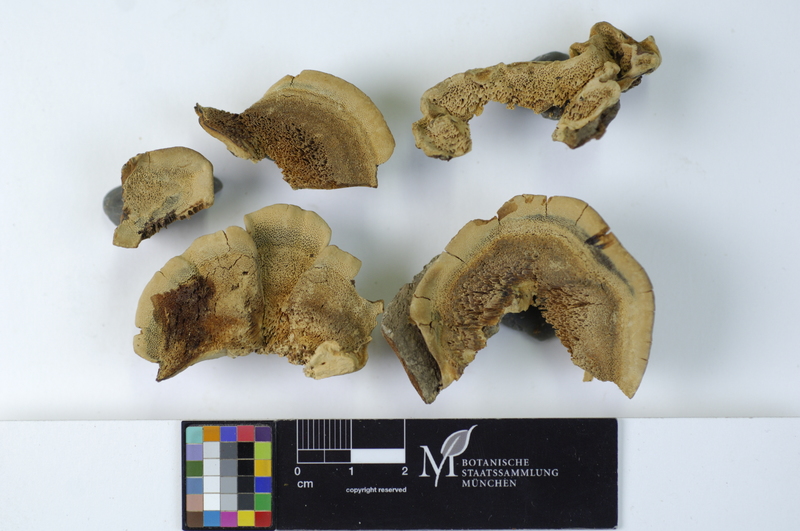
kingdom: Plantae
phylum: Tracheophyta
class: Magnoliopsida
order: Malpighiales
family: Salicaceae
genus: Salix
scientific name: Salix alba
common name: White willow
